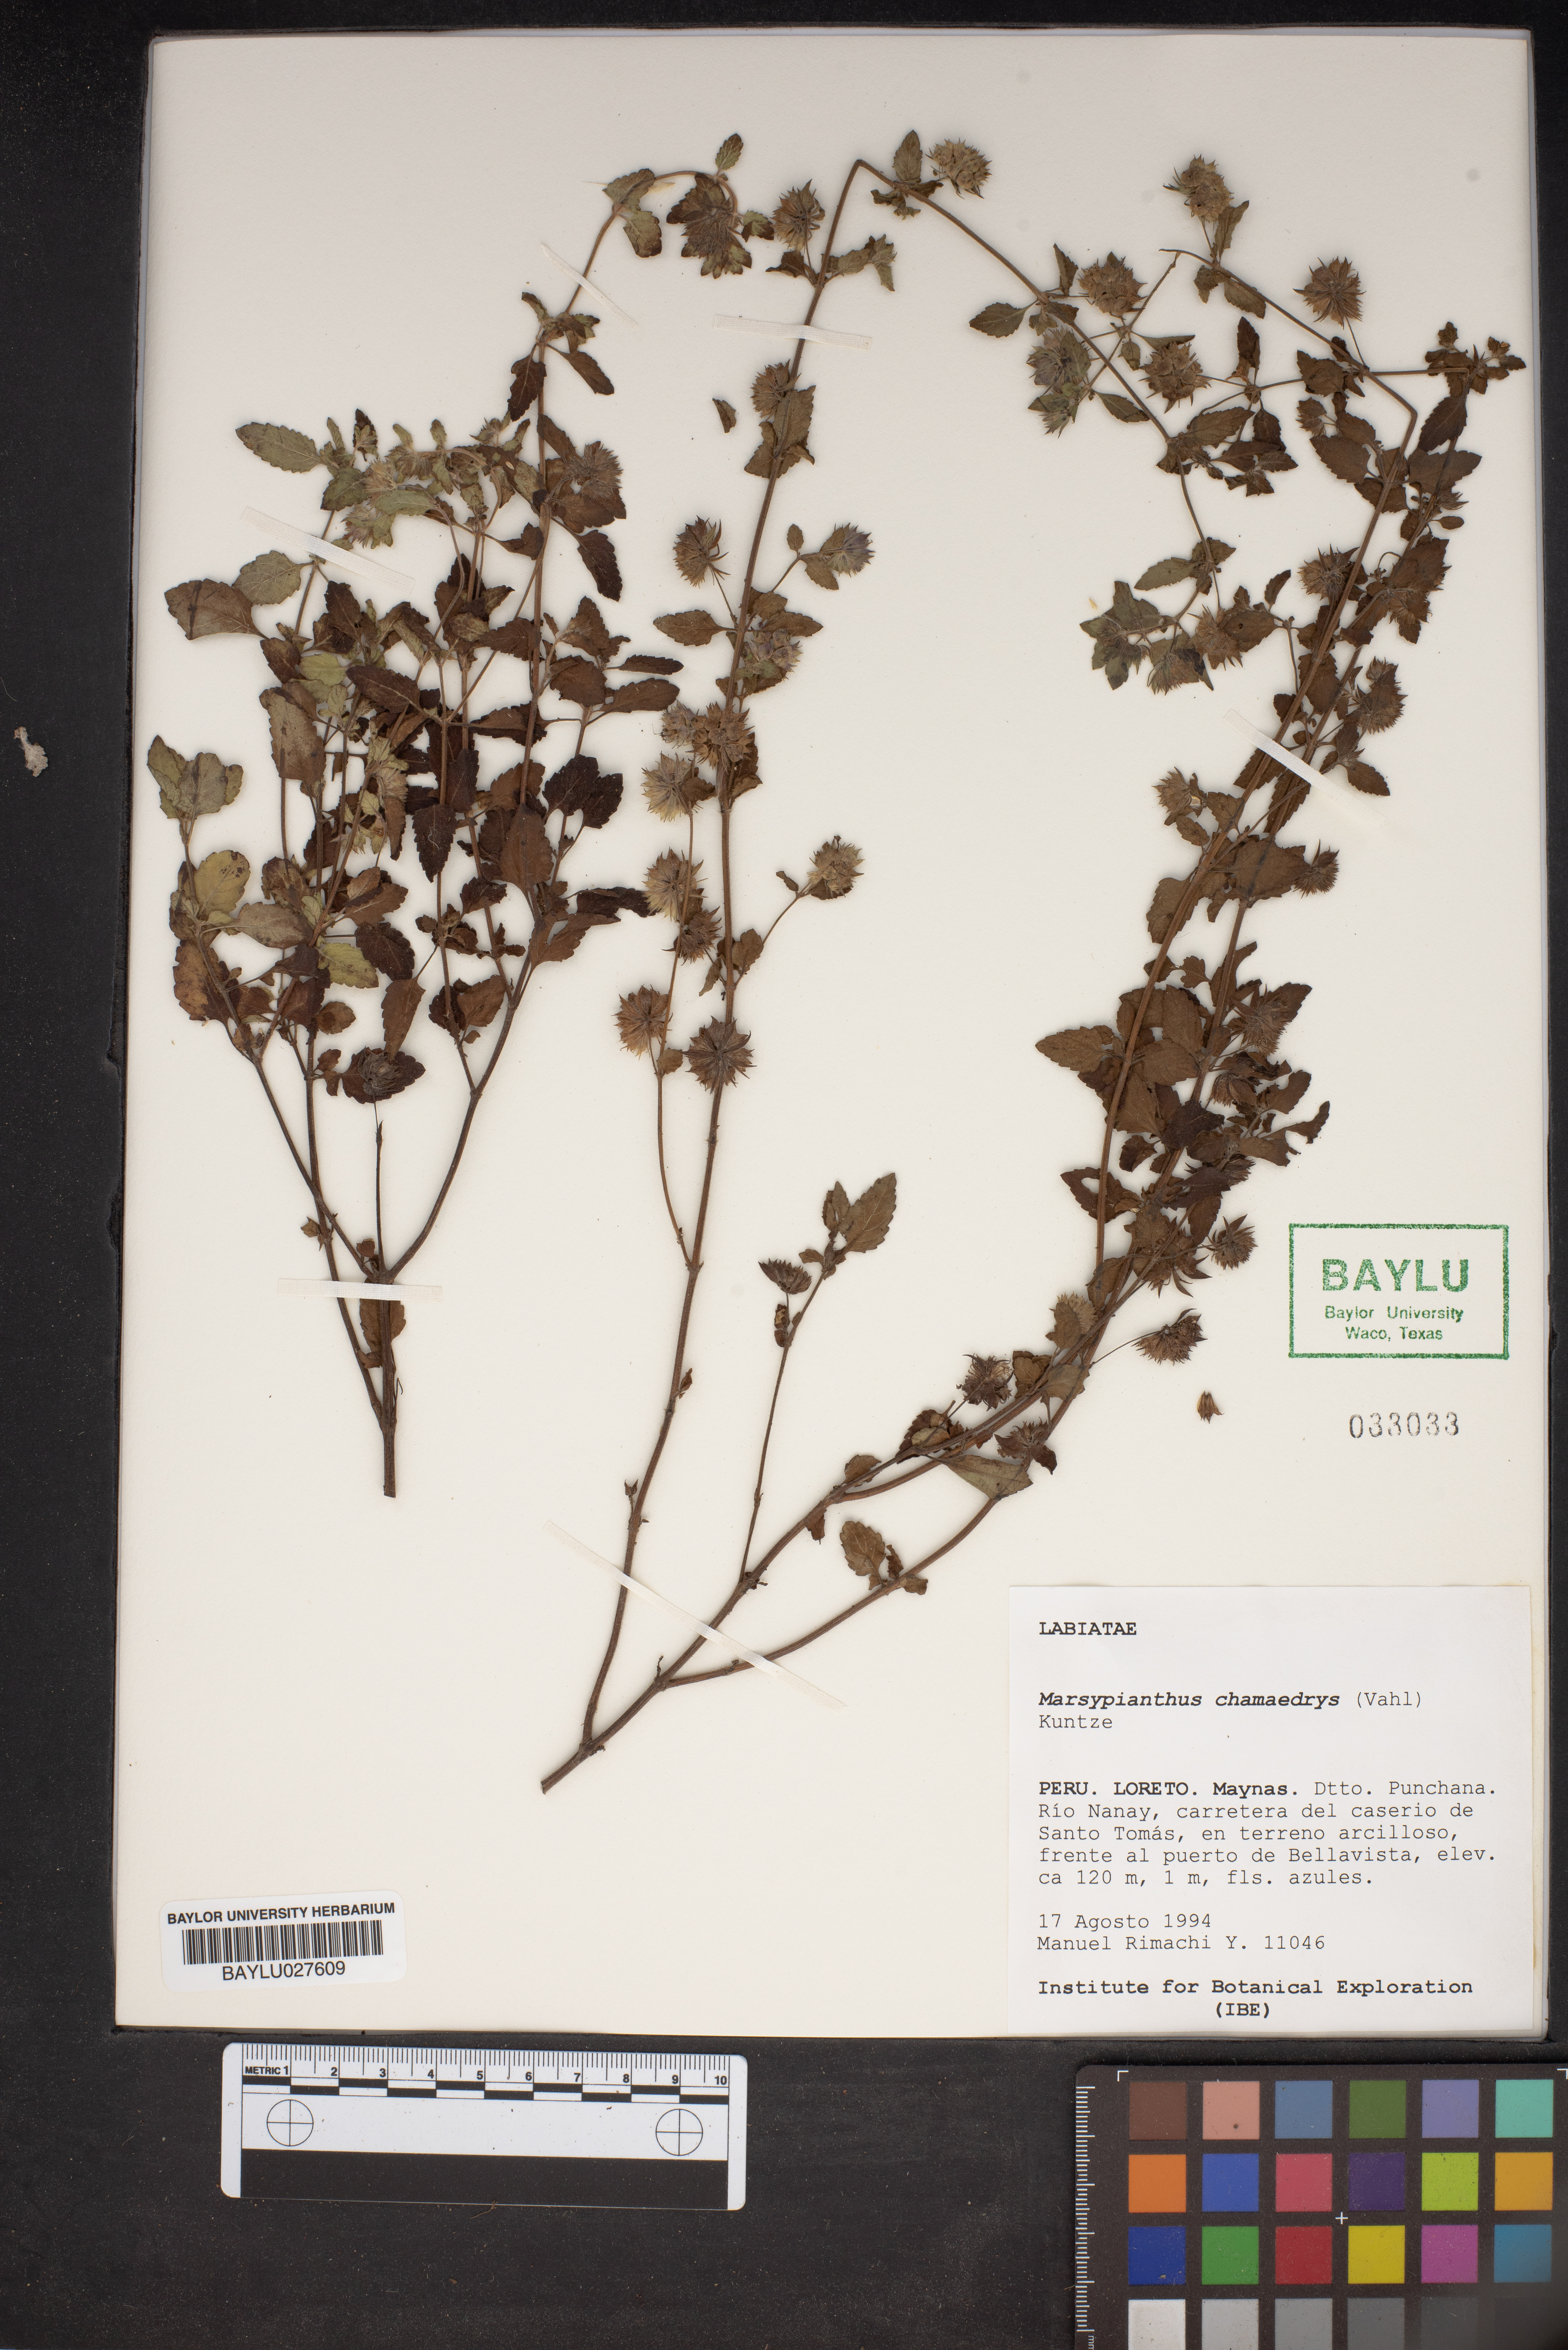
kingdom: Plantae
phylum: Tracheophyta
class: Magnoliopsida
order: Lamiales
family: Lamiaceae
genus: Marsypianthes
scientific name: Marsypianthes chamaedrys
